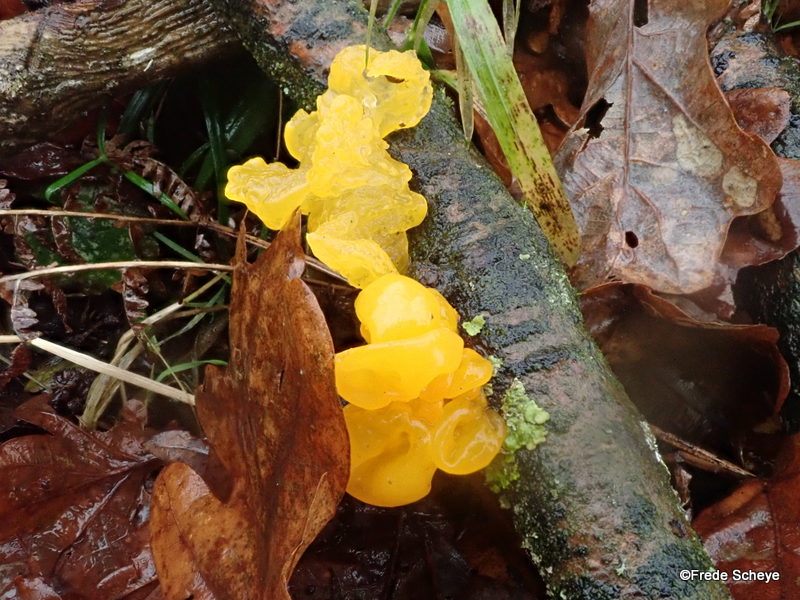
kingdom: Fungi
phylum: Basidiomycota
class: Tremellomycetes
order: Tremellales
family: Tremellaceae
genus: Tremella
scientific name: Tremella mesenterica
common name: gul bævresvamp
